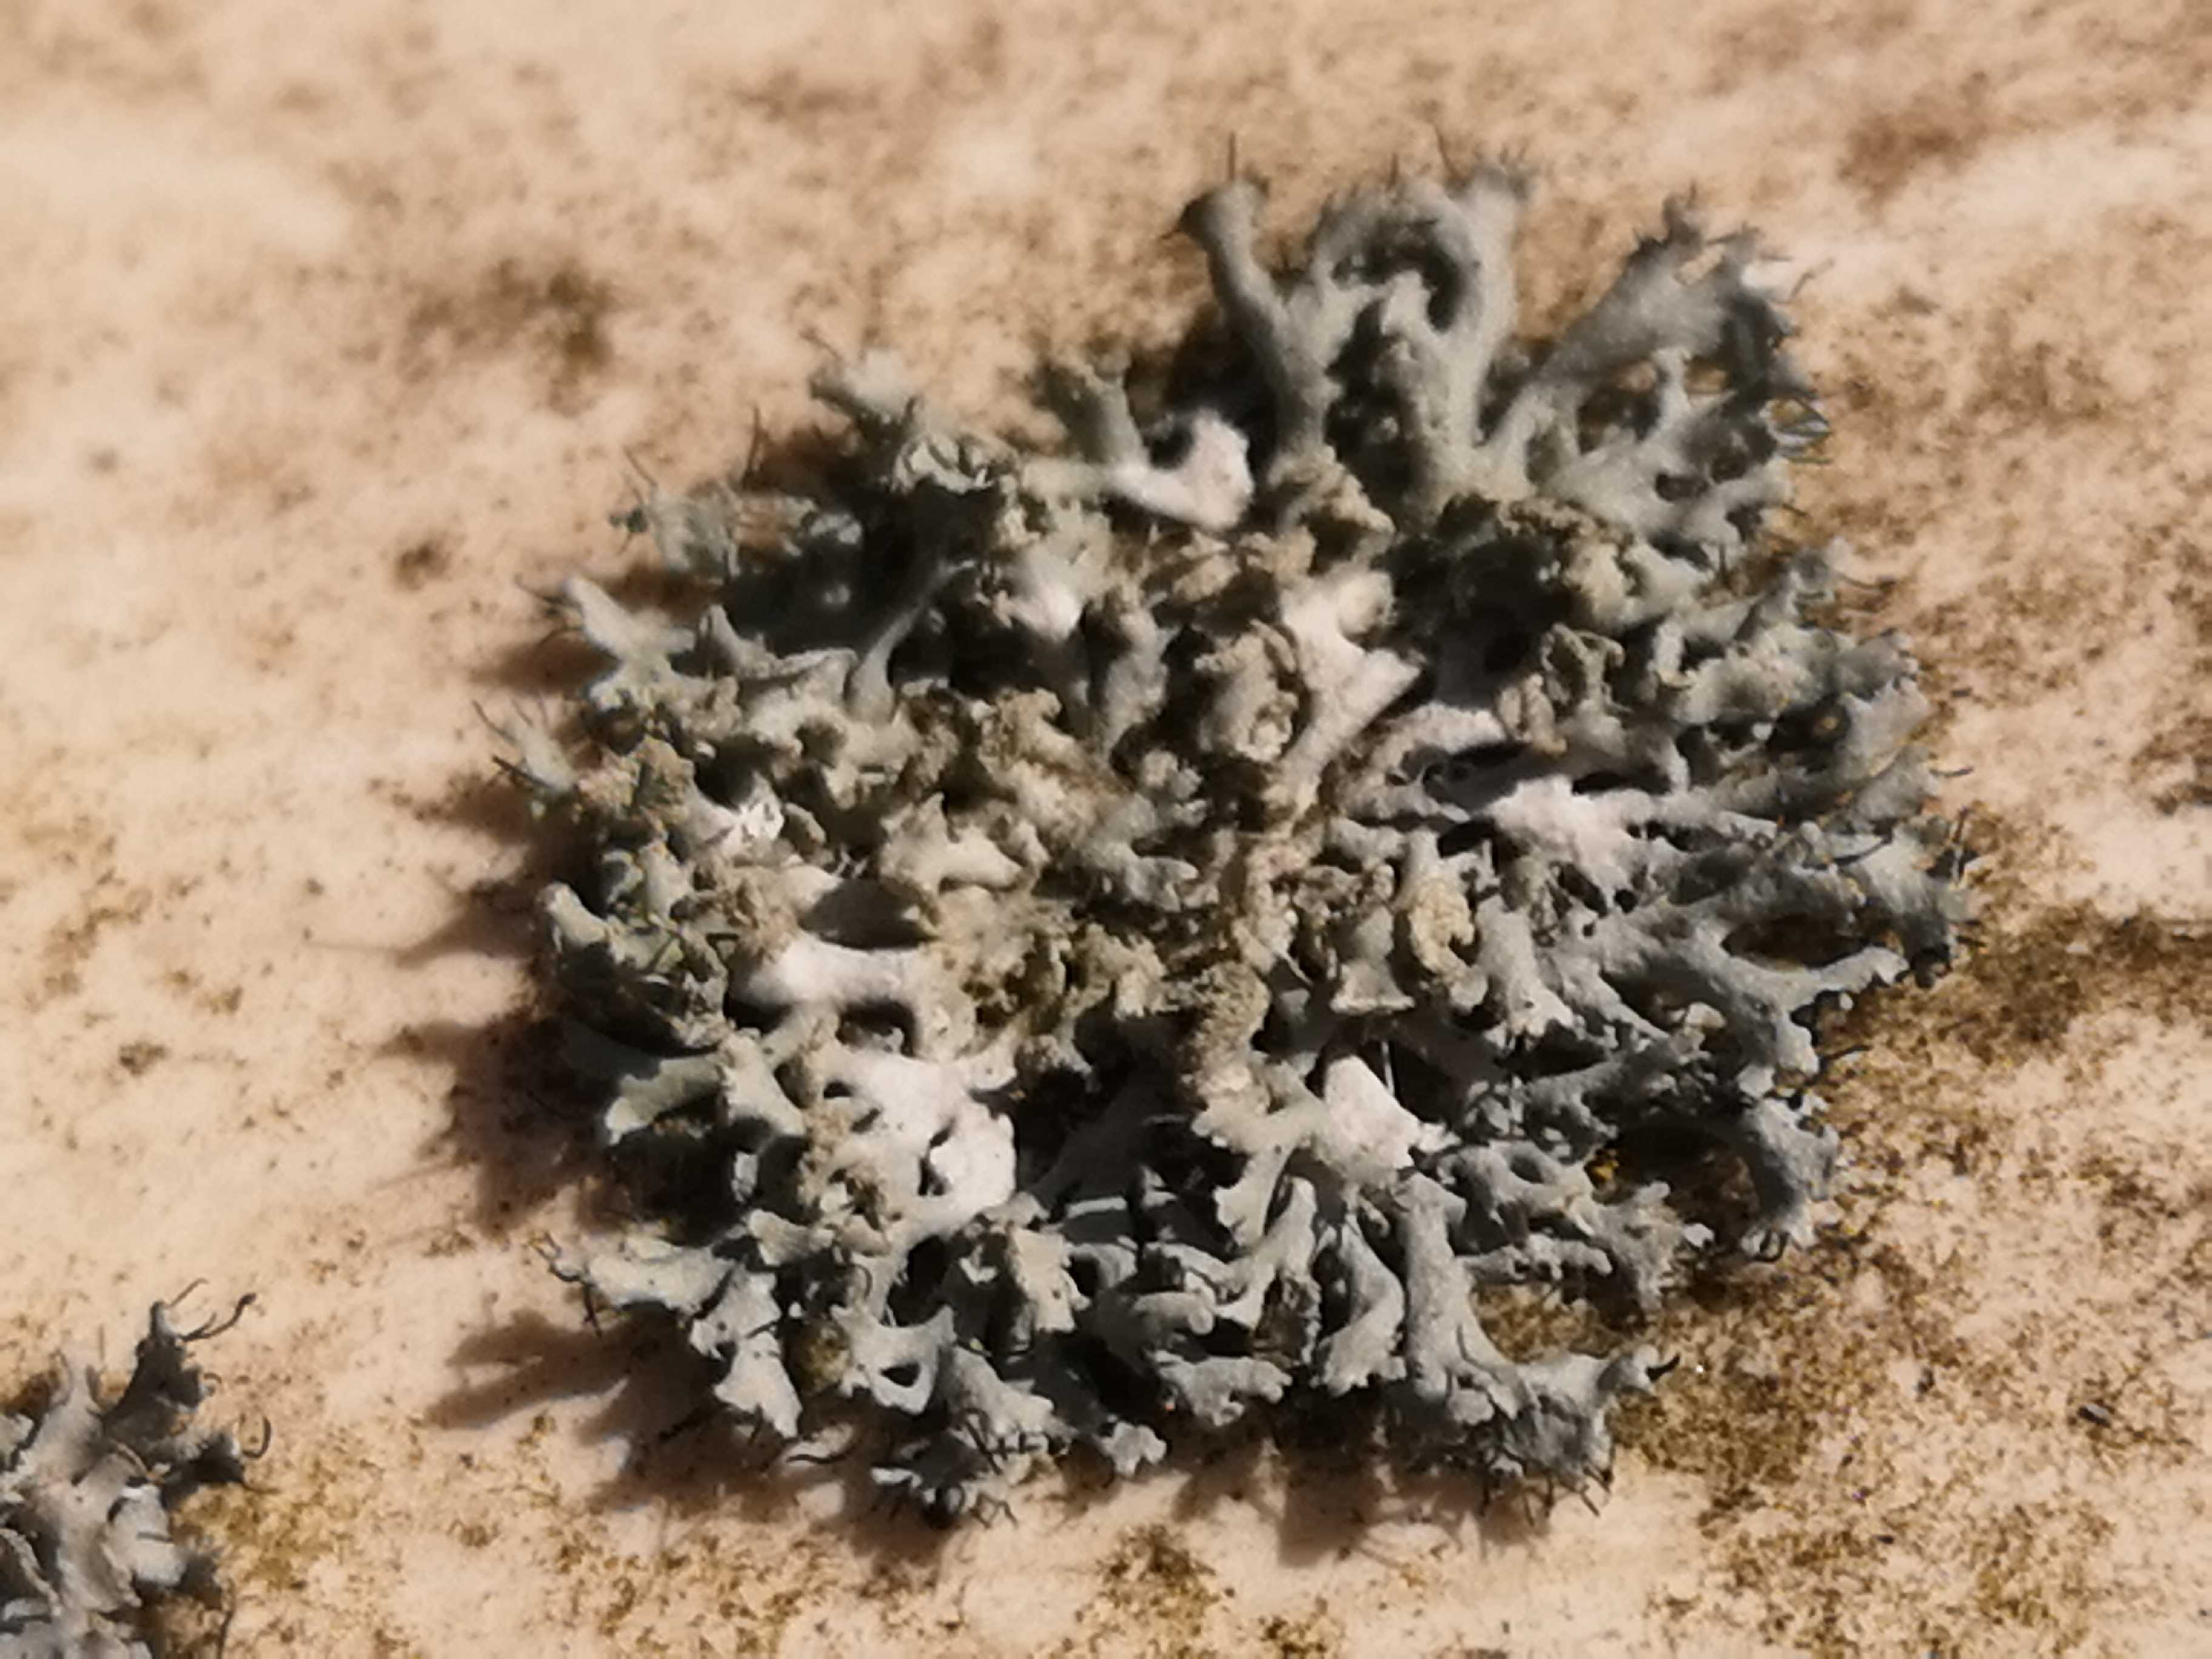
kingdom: Fungi
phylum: Ascomycota
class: Lecanoromycetes
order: Caliciales
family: Physciaceae
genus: Physcia
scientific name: Physcia tenella
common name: spæd rosetlav
